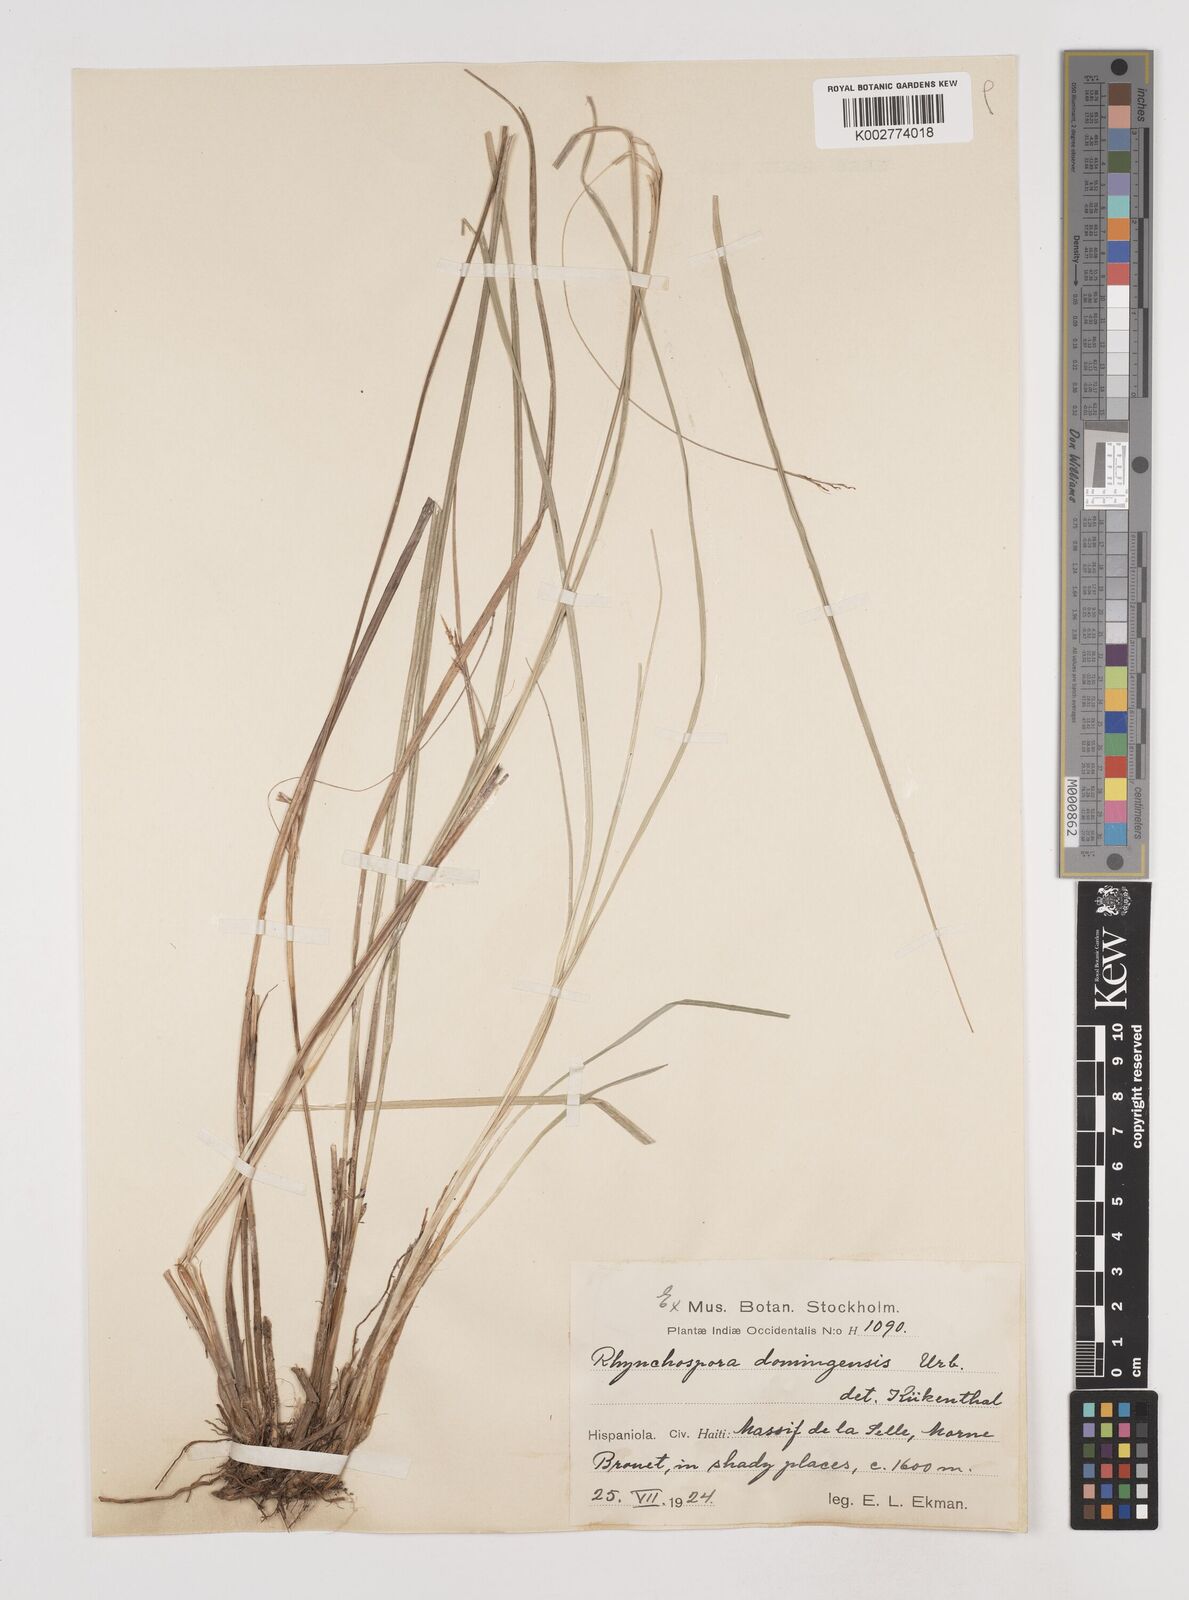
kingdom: Plantae
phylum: Tracheophyta
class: Liliopsida
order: Poales
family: Cyperaceae
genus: Rhynchospora
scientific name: Rhynchospora domingensis
